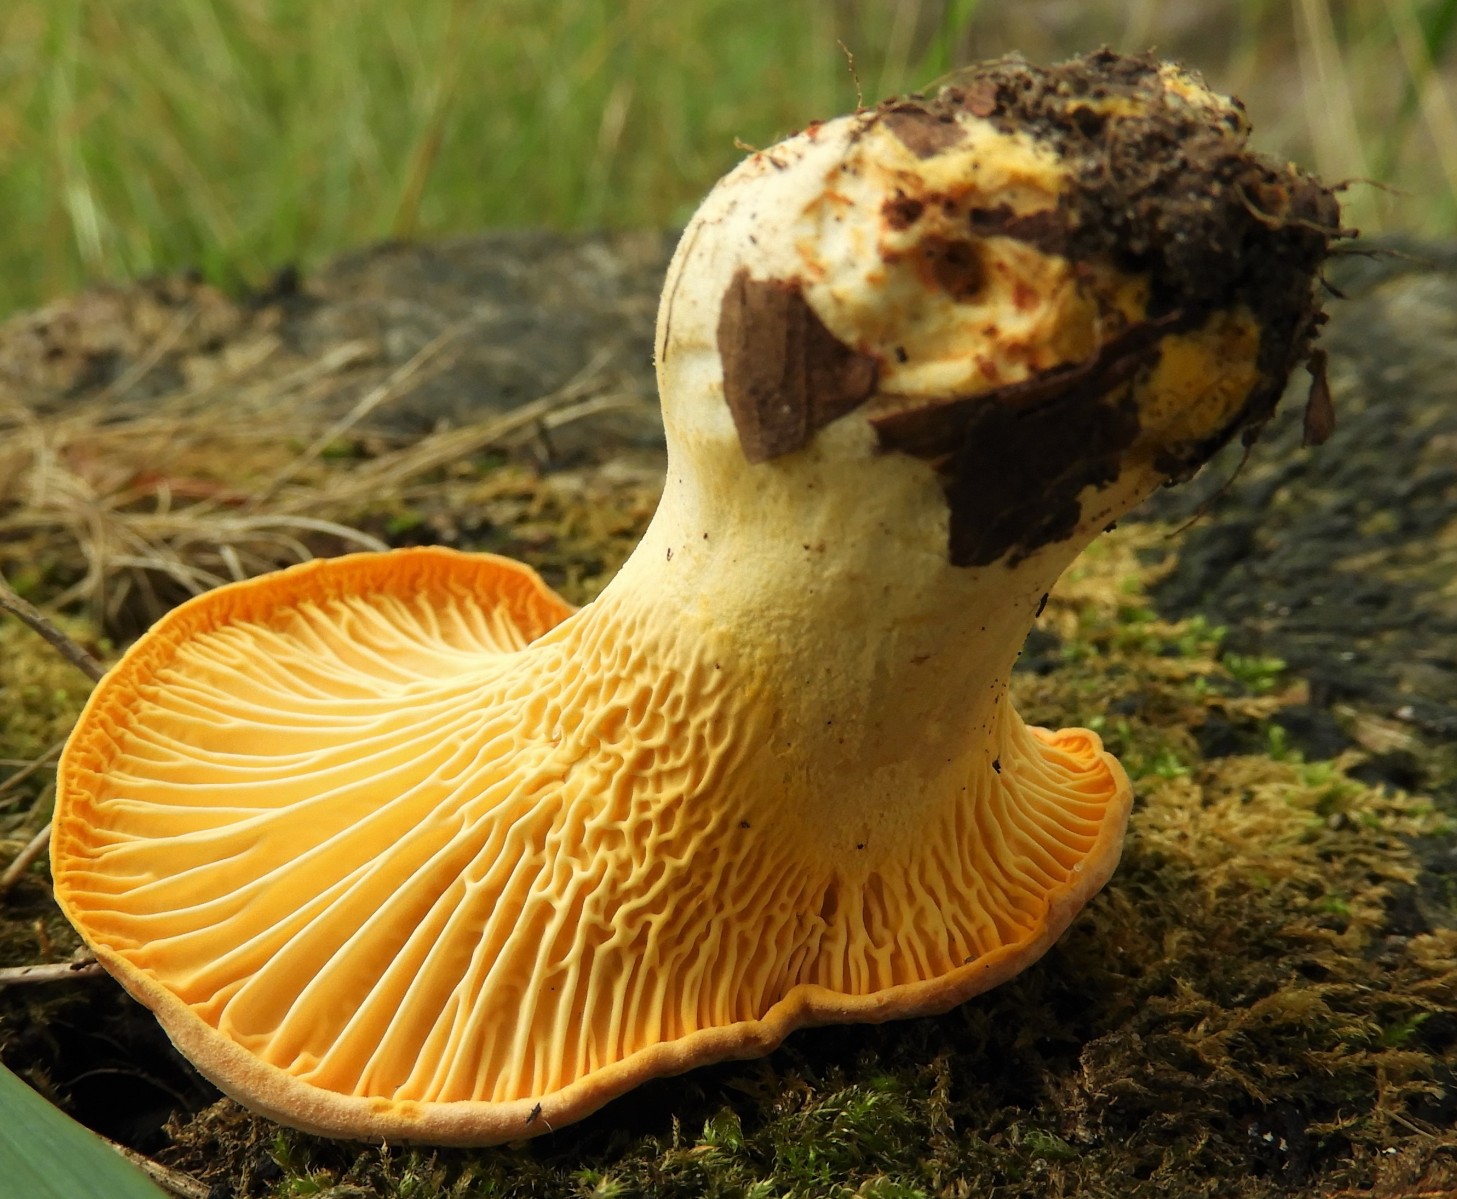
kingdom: Fungi
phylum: Basidiomycota
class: Agaricomycetes
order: Cantharellales
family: Hydnaceae
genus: Cantharellus
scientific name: Cantharellus pallens
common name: bleg kantarel
